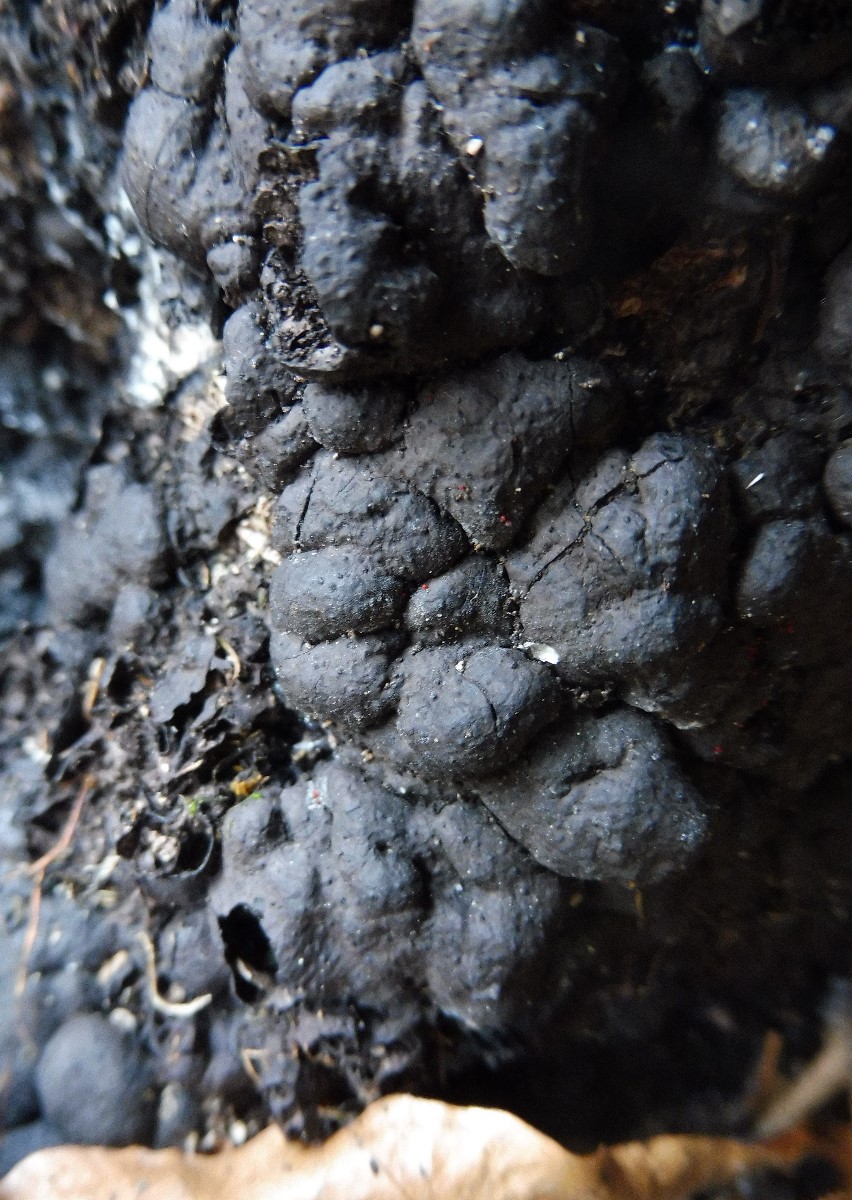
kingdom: Fungi
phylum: Ascomycota
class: Sordariomycetes
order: Xylariales
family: Xylariaceae
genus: Kretzschmaria
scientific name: Kretzschmaria deusta
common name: stor kulsvamp
